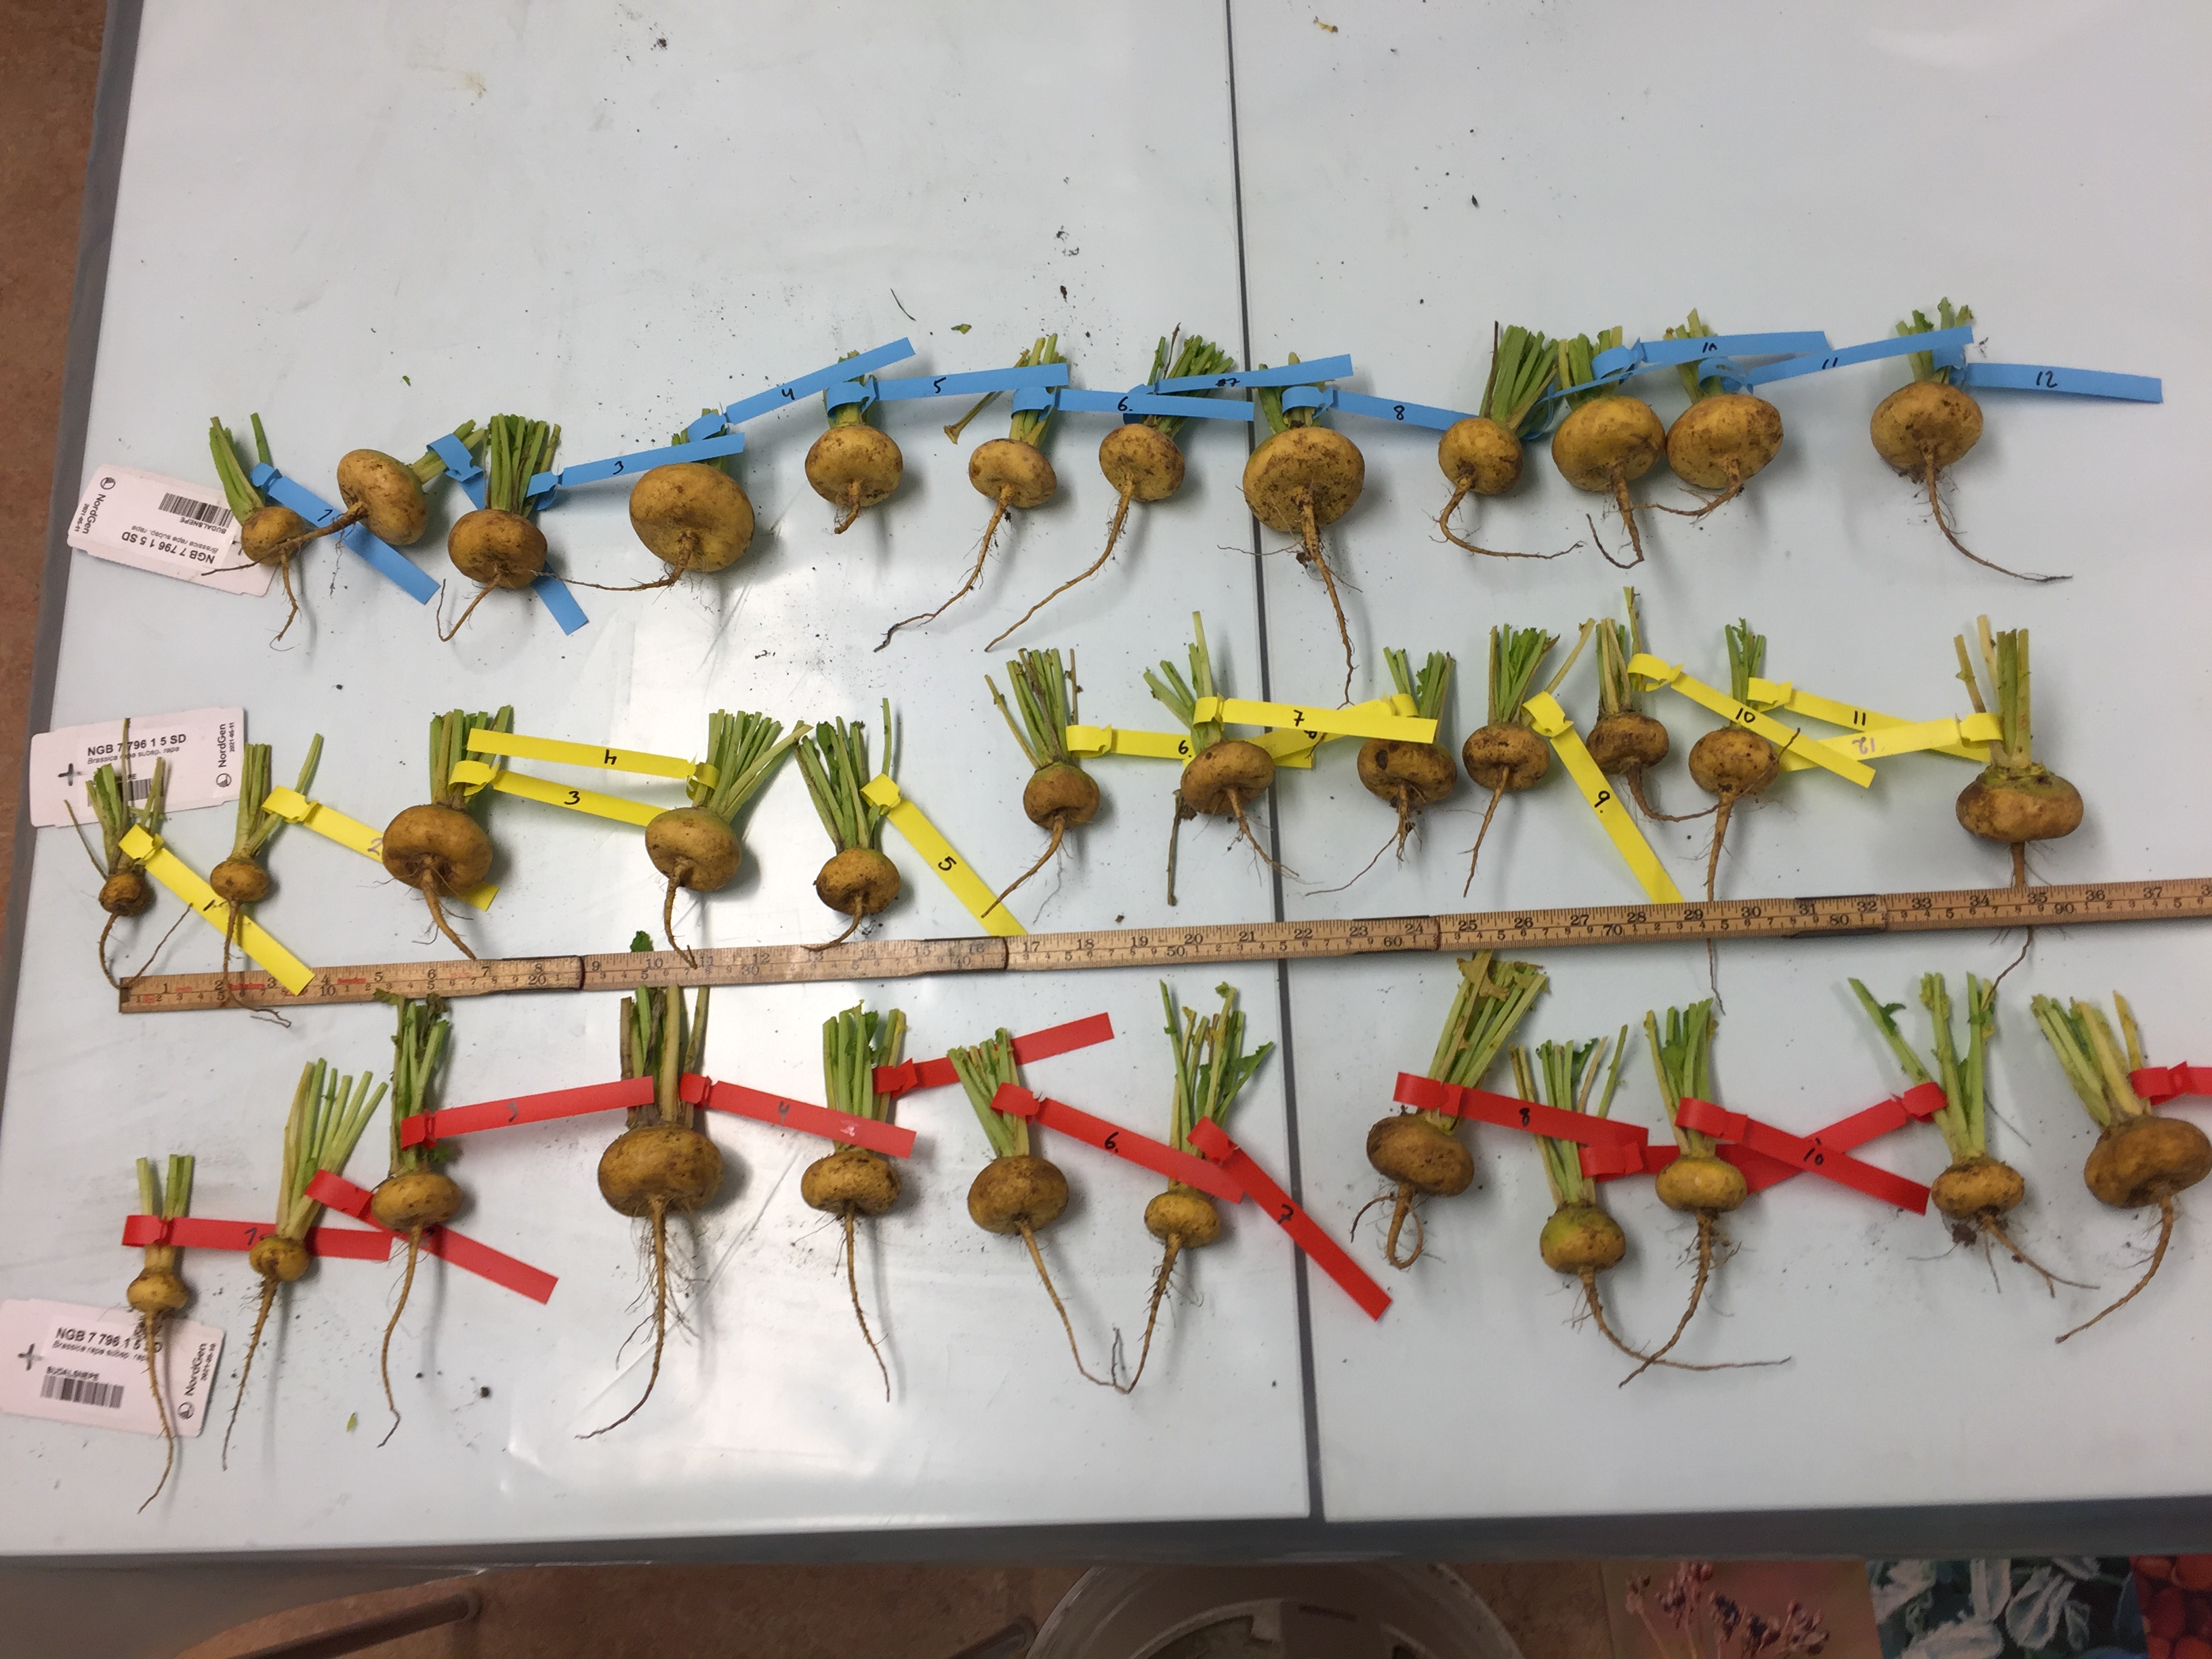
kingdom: Plantae
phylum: Tracheophyta
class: Magnoliopsida
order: Brassicales
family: Brassicaceae
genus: Brassica
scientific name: Brassica rapa
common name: Field mustard
